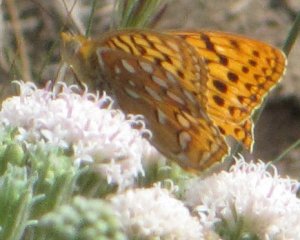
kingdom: Animalia
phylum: Arthropoda
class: Insecta
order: Lepidoptera
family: Nymphalidae
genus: Speyeria
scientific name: Speyeria coronis
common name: Coronis Fritillary
